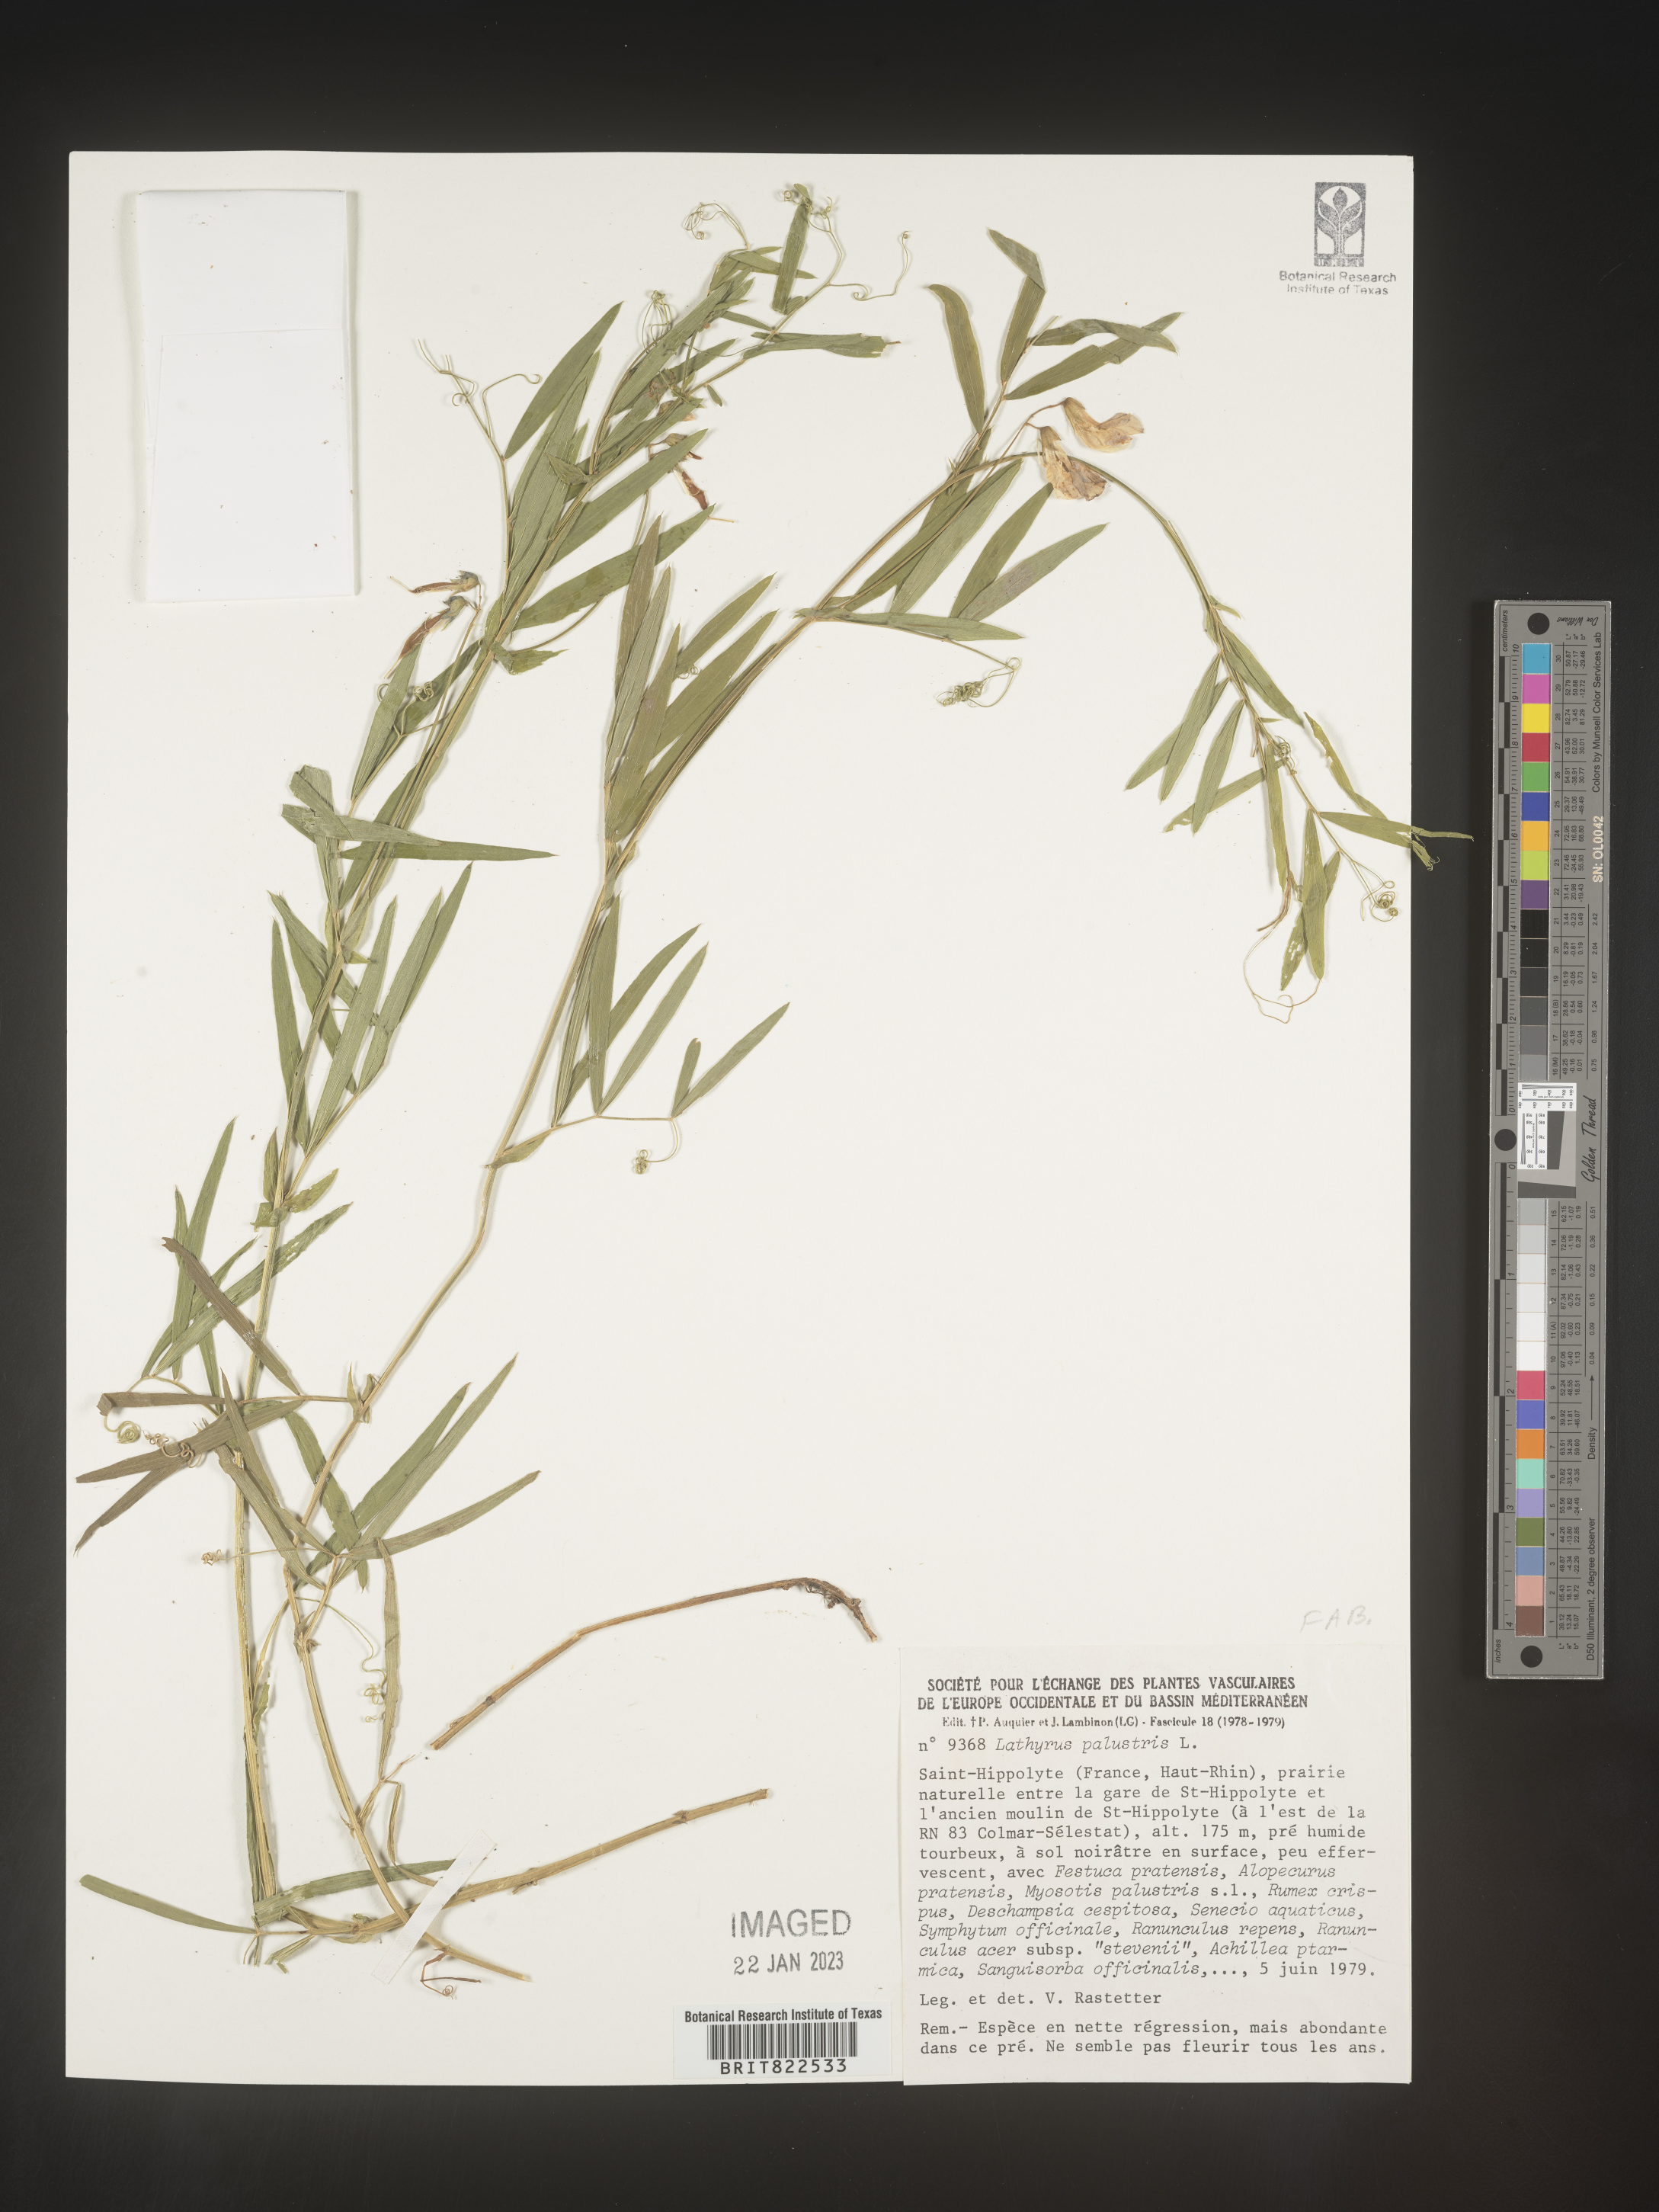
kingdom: Plantae
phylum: Tracheophyta
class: Magnoliopsida
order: Fabales
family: Fabaceae
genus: Lathyrus
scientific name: Lathyrus
